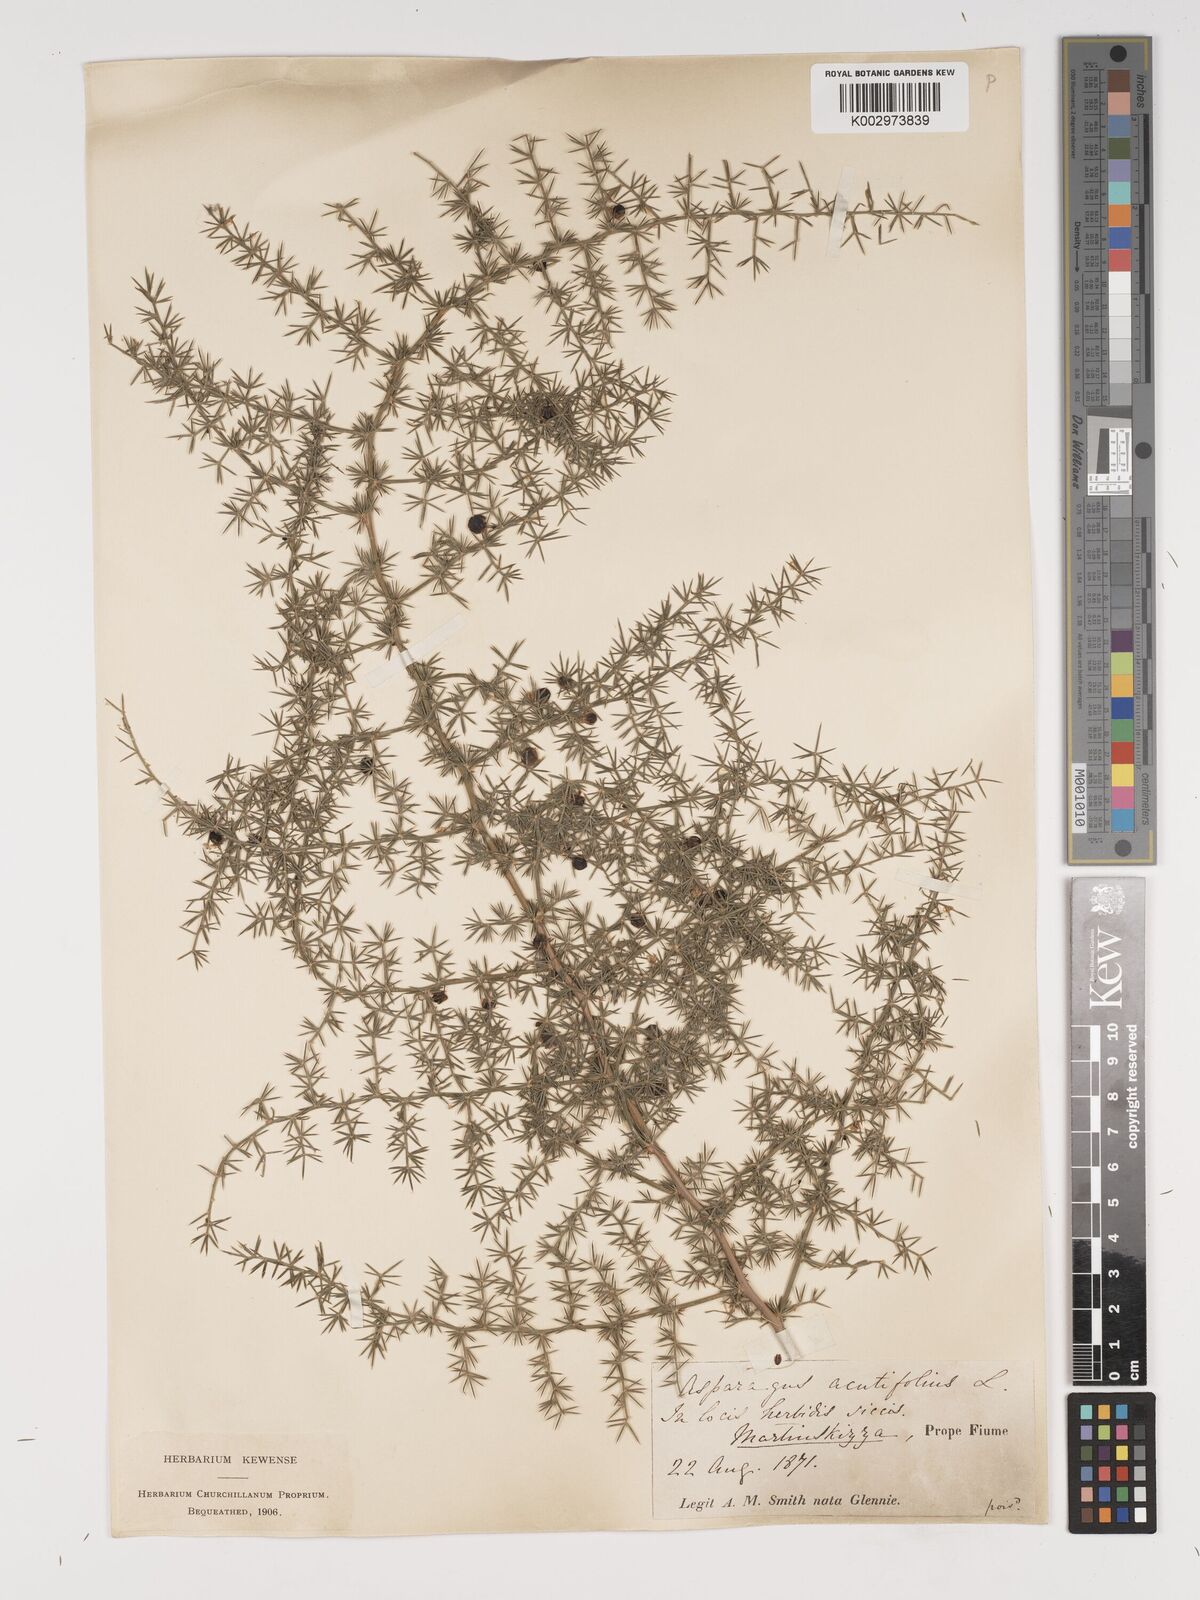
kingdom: Plantae
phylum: Tracheophyta
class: Liliopsida
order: Asparagales
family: Asparagaceae
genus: Asparagus
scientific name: Asparagus acutifolius
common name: Wild asparagus
